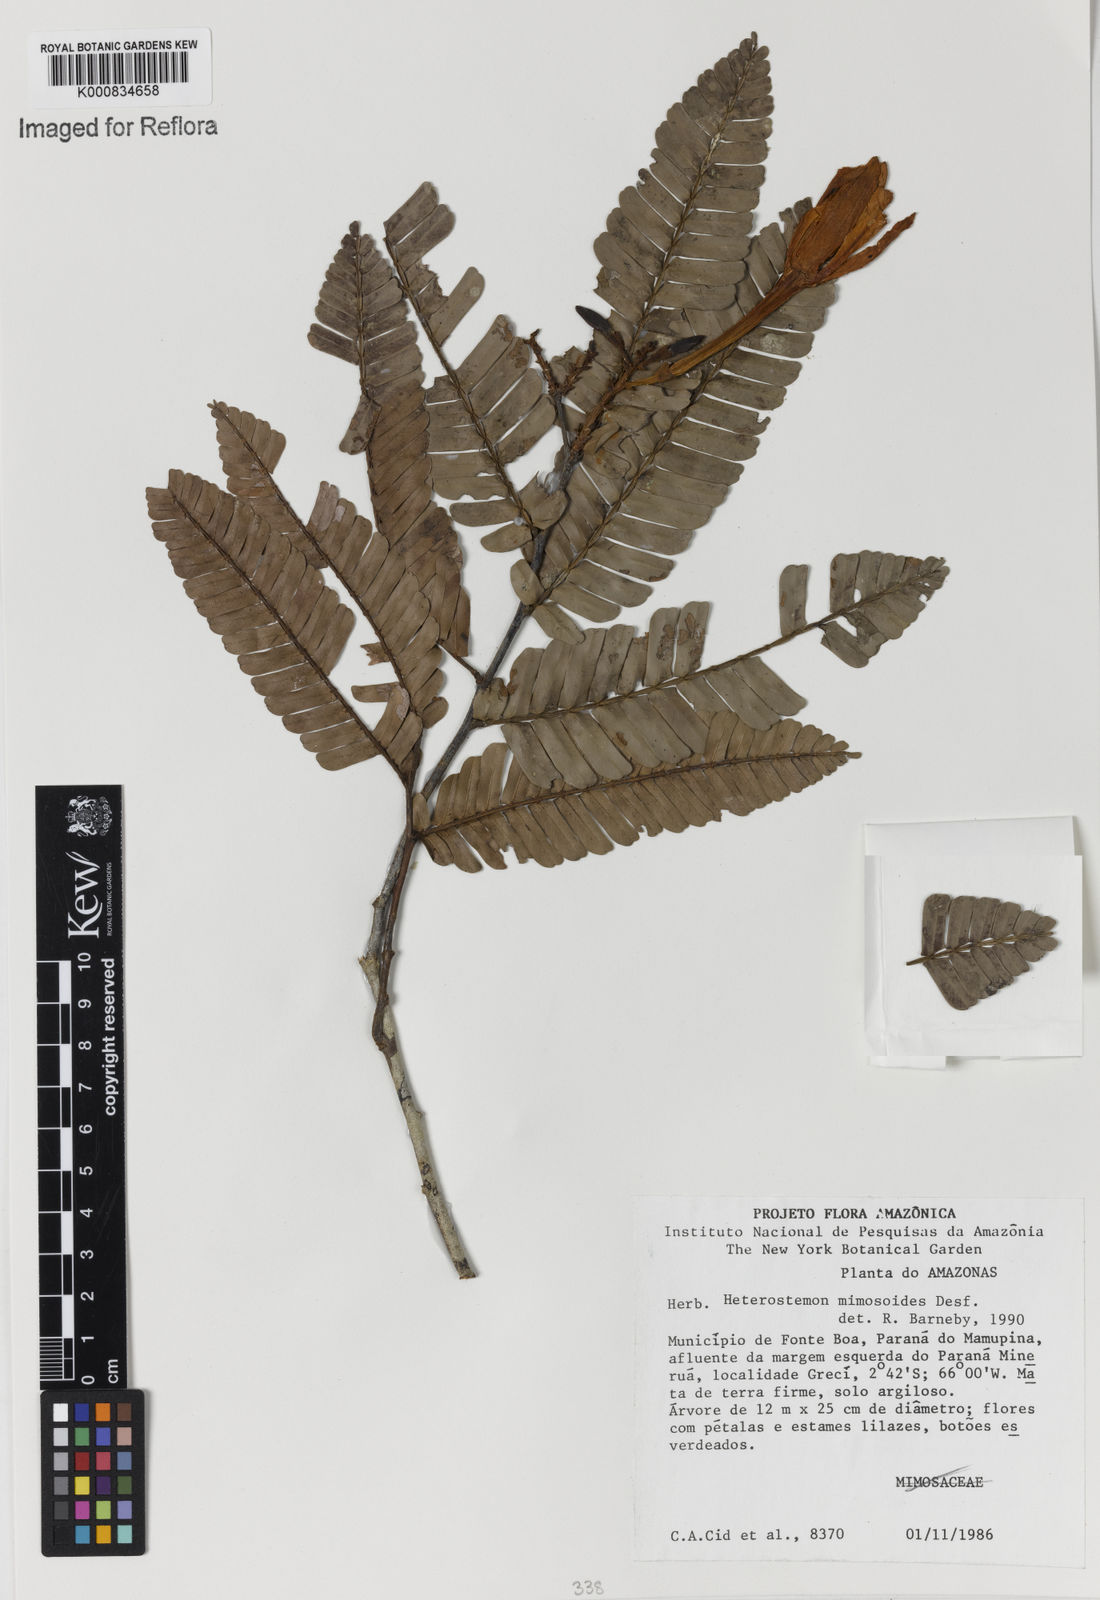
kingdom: Plantae
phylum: Tracheophyta
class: Magnoliopsida
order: Fabales
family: Fabaceae
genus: Heterostemon
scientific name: Heterostemon mimosoides
